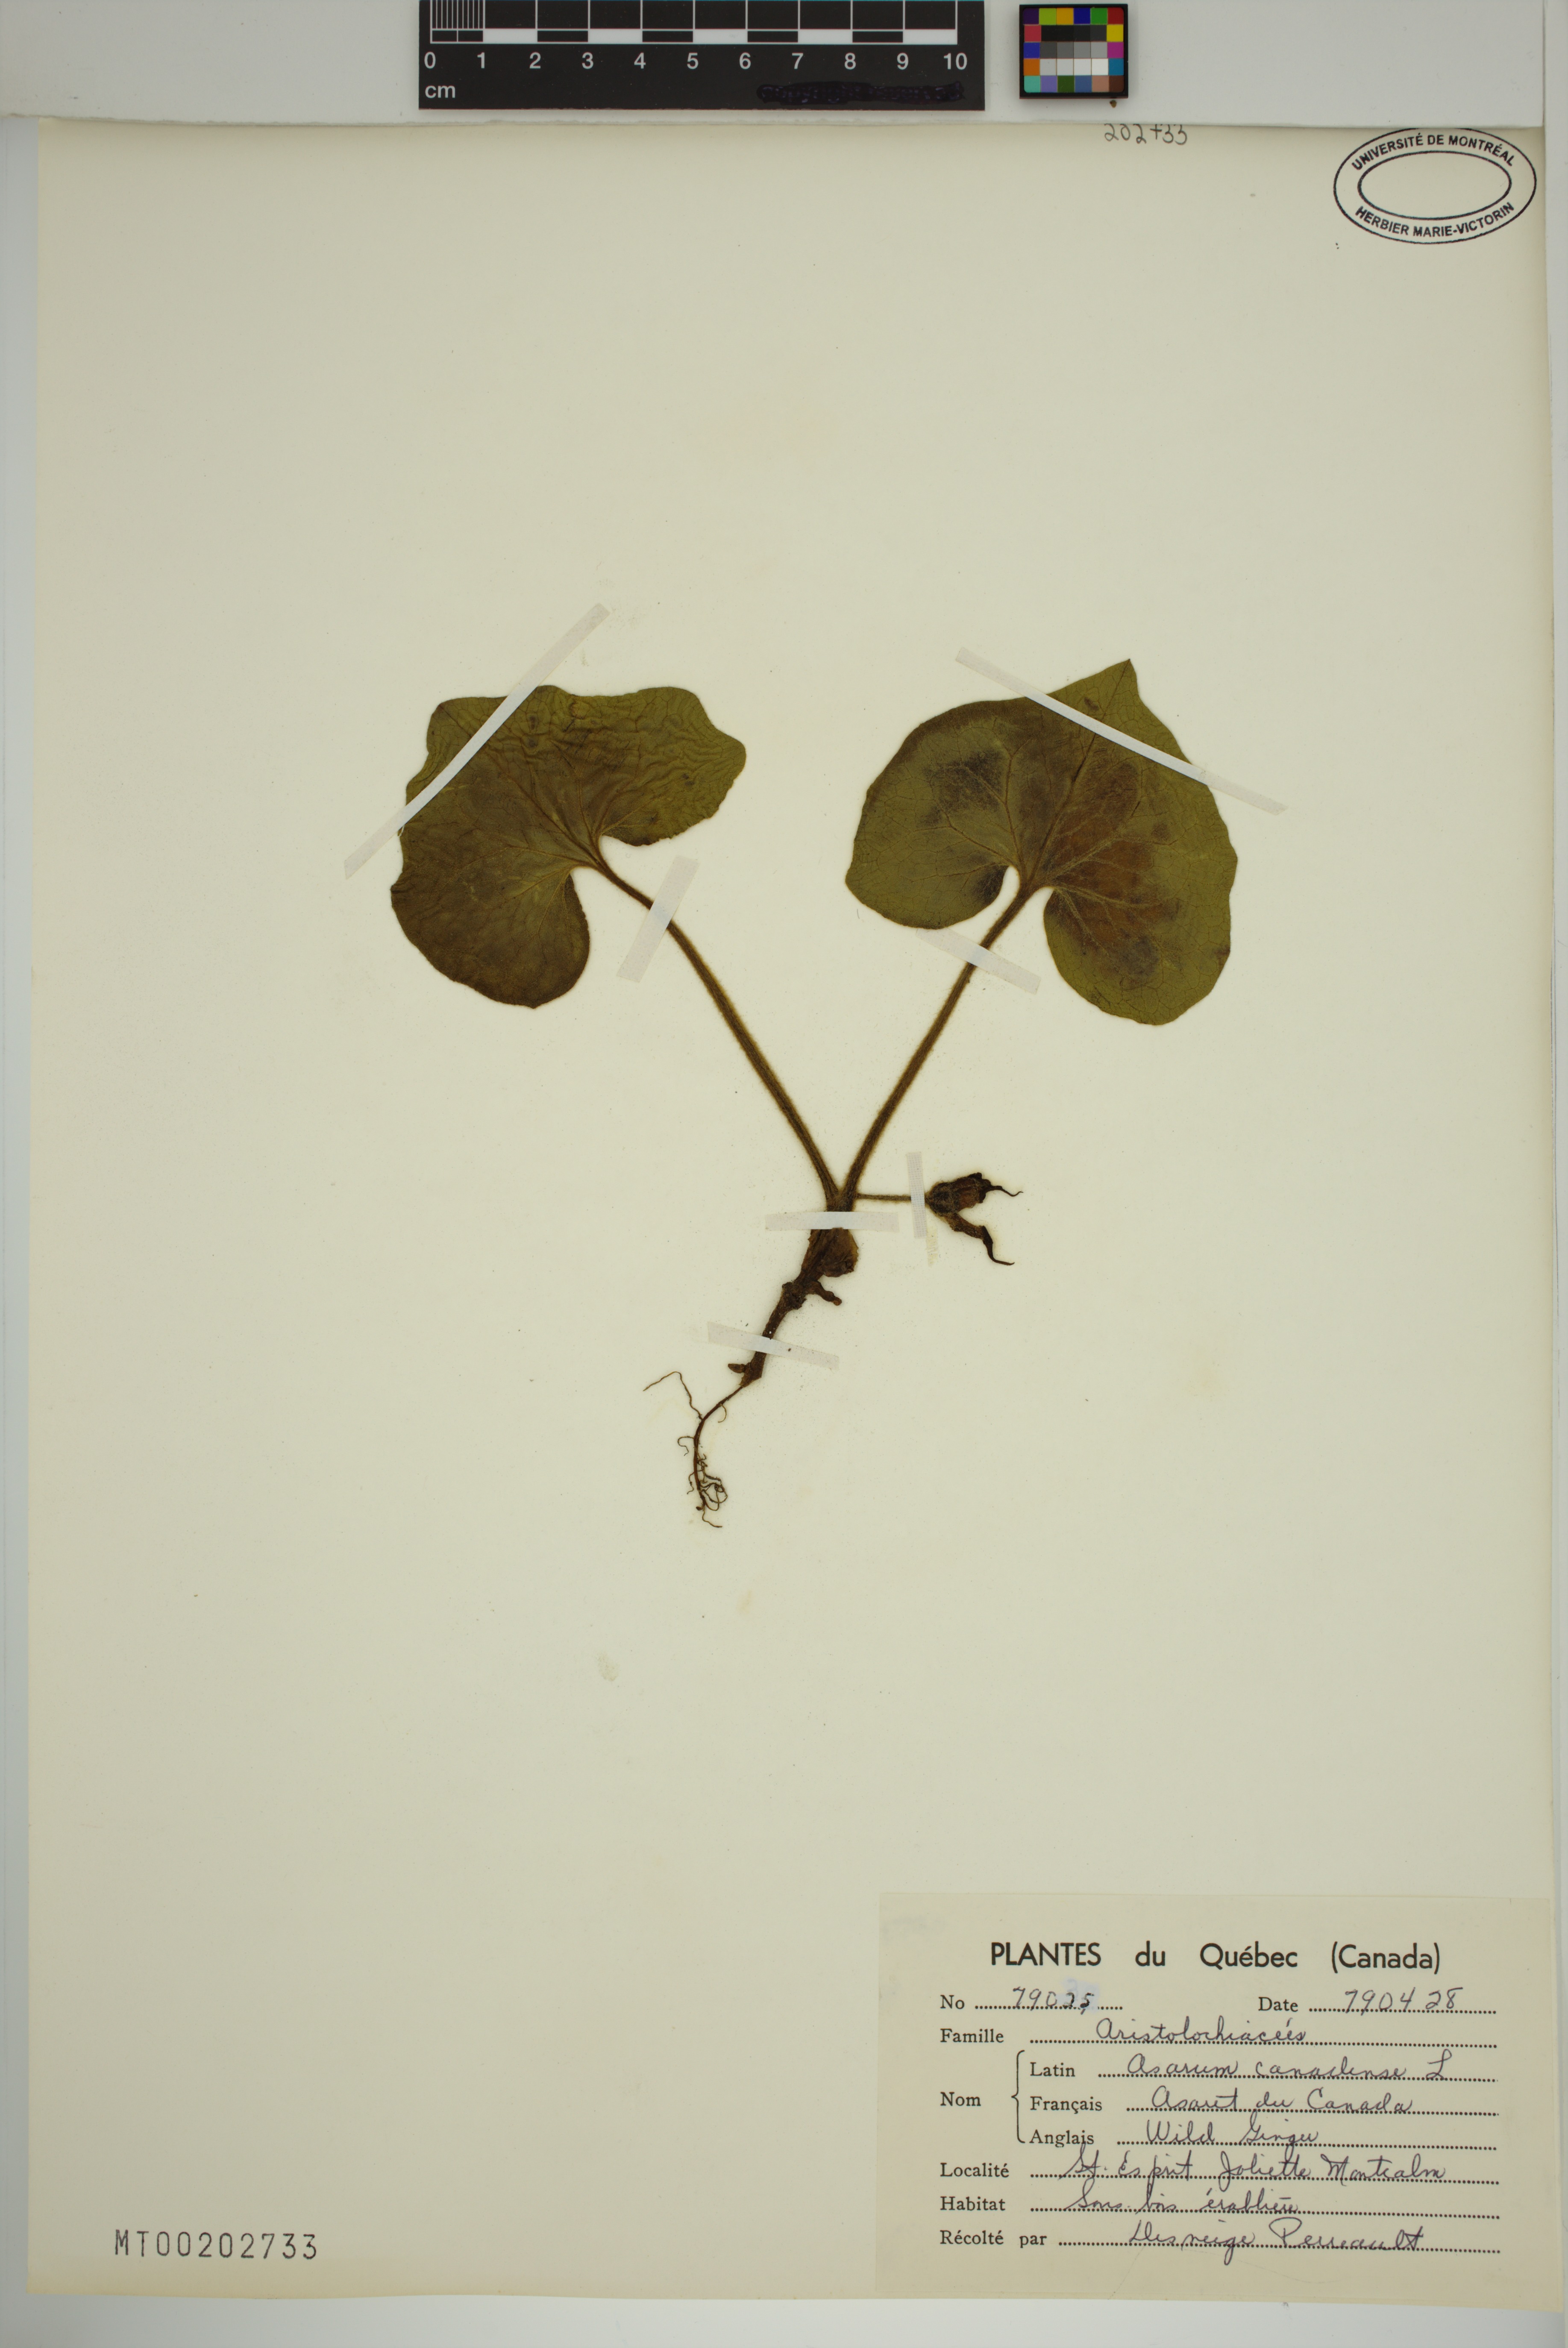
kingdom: Plantae
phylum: Tracheophyta
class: Magnoliopsida
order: Piperales
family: Aristolochiaceae
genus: Asarum
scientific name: Asarum canadense
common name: Wild ginger
